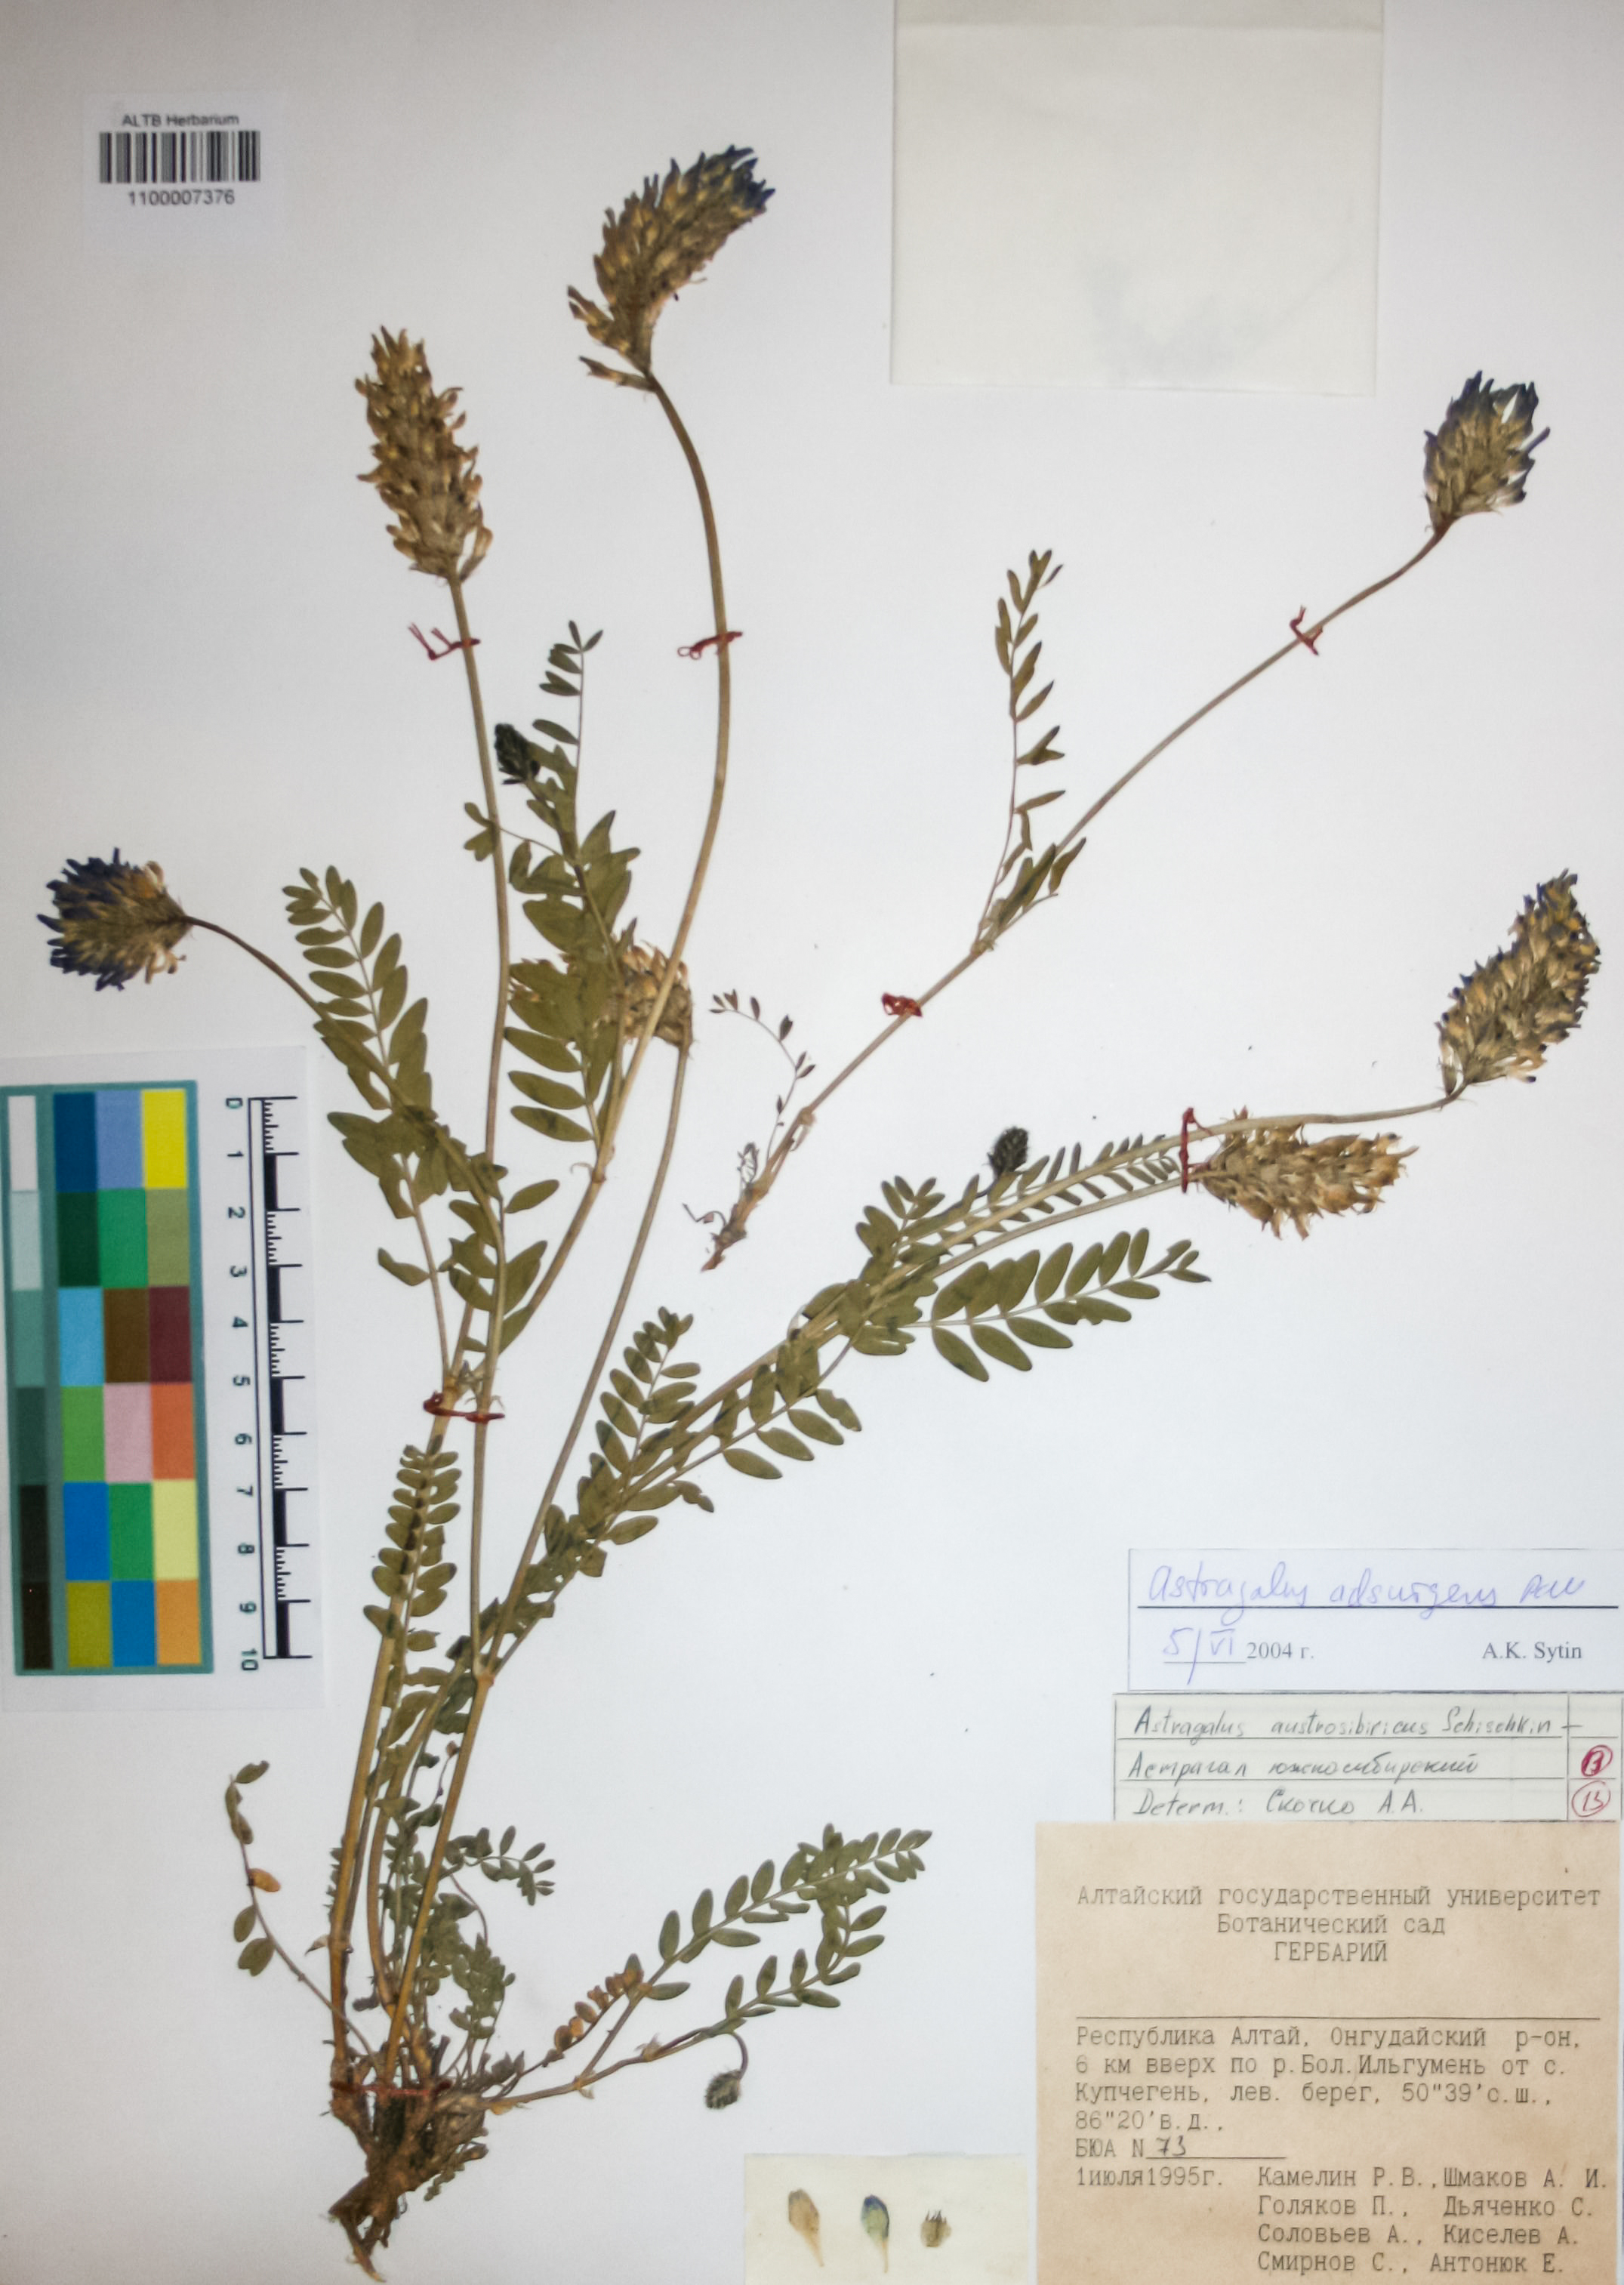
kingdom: Plantae
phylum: Tracheophyta
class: Magnoliopsida
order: Fabales
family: Fabaceae
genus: Astragalus
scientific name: Astragalus laxmannii
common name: Laxmann's milk-vetch
